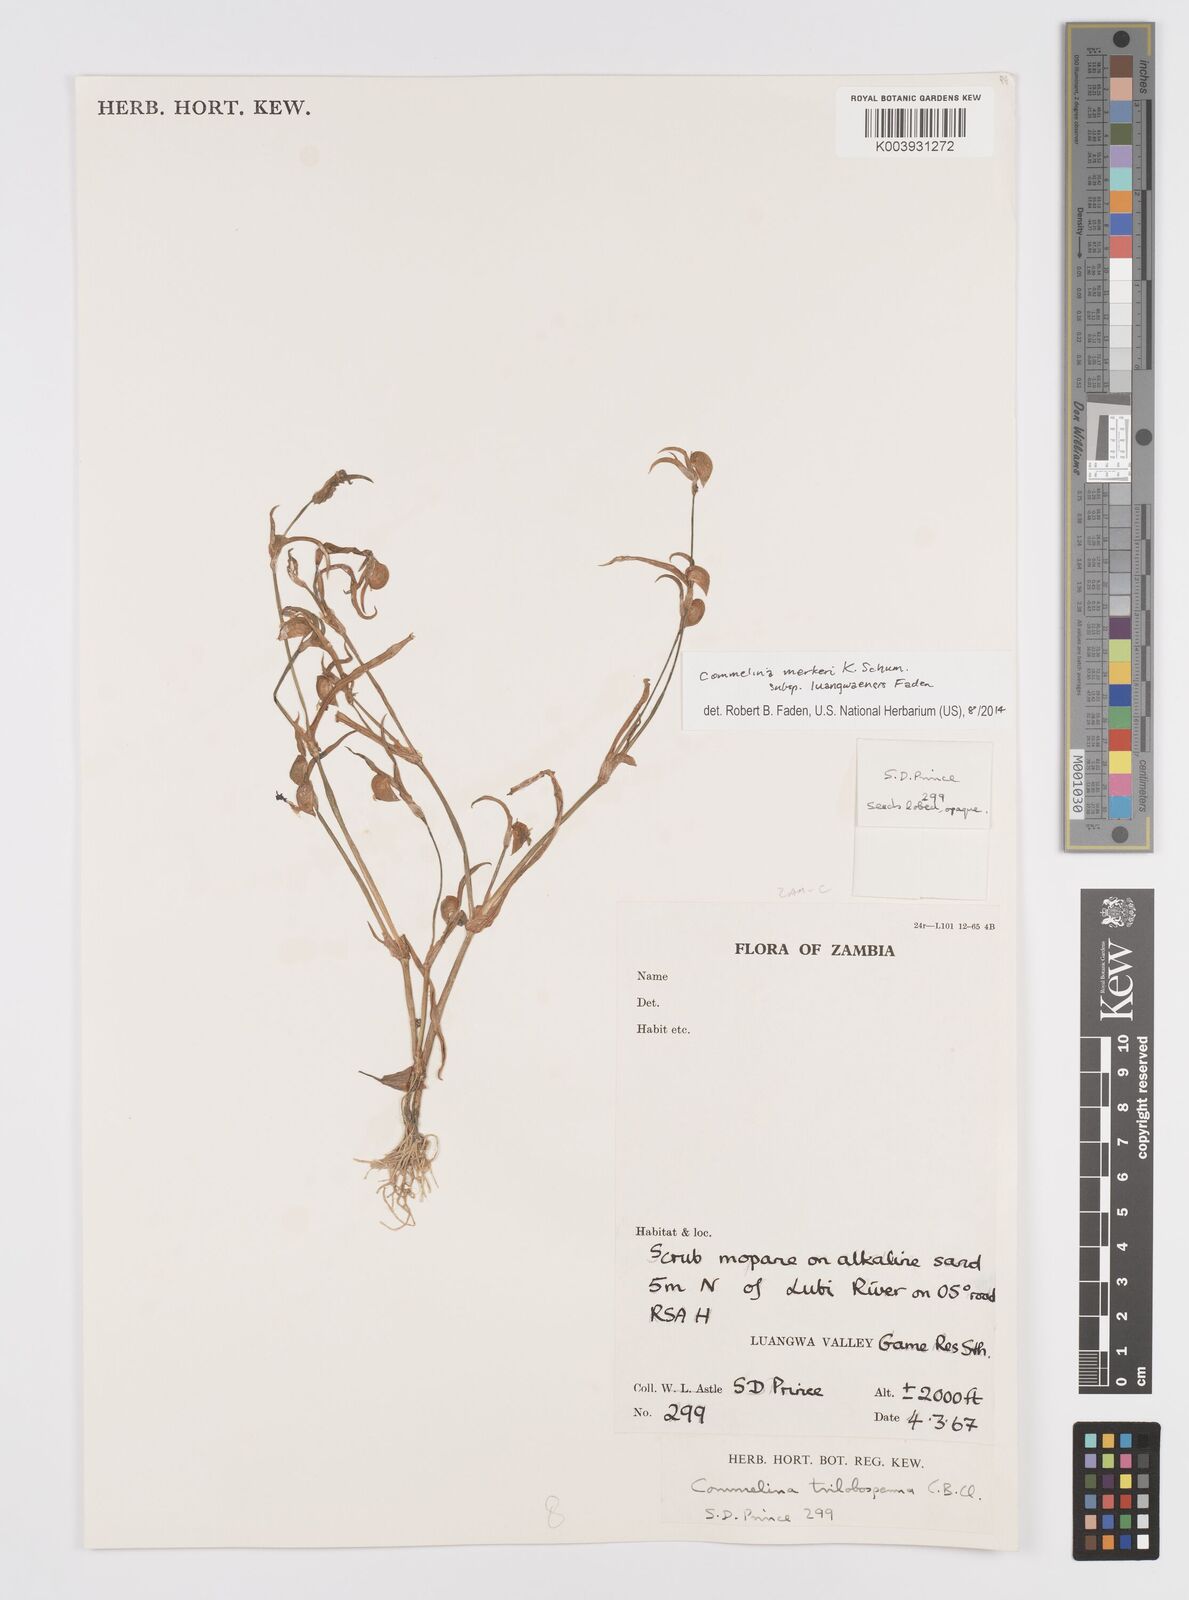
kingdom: Plantae
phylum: Tracheophyta
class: Liliopsida
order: Commelinales
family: Commelinaceae
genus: Commelina
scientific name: Commelina merkeri
